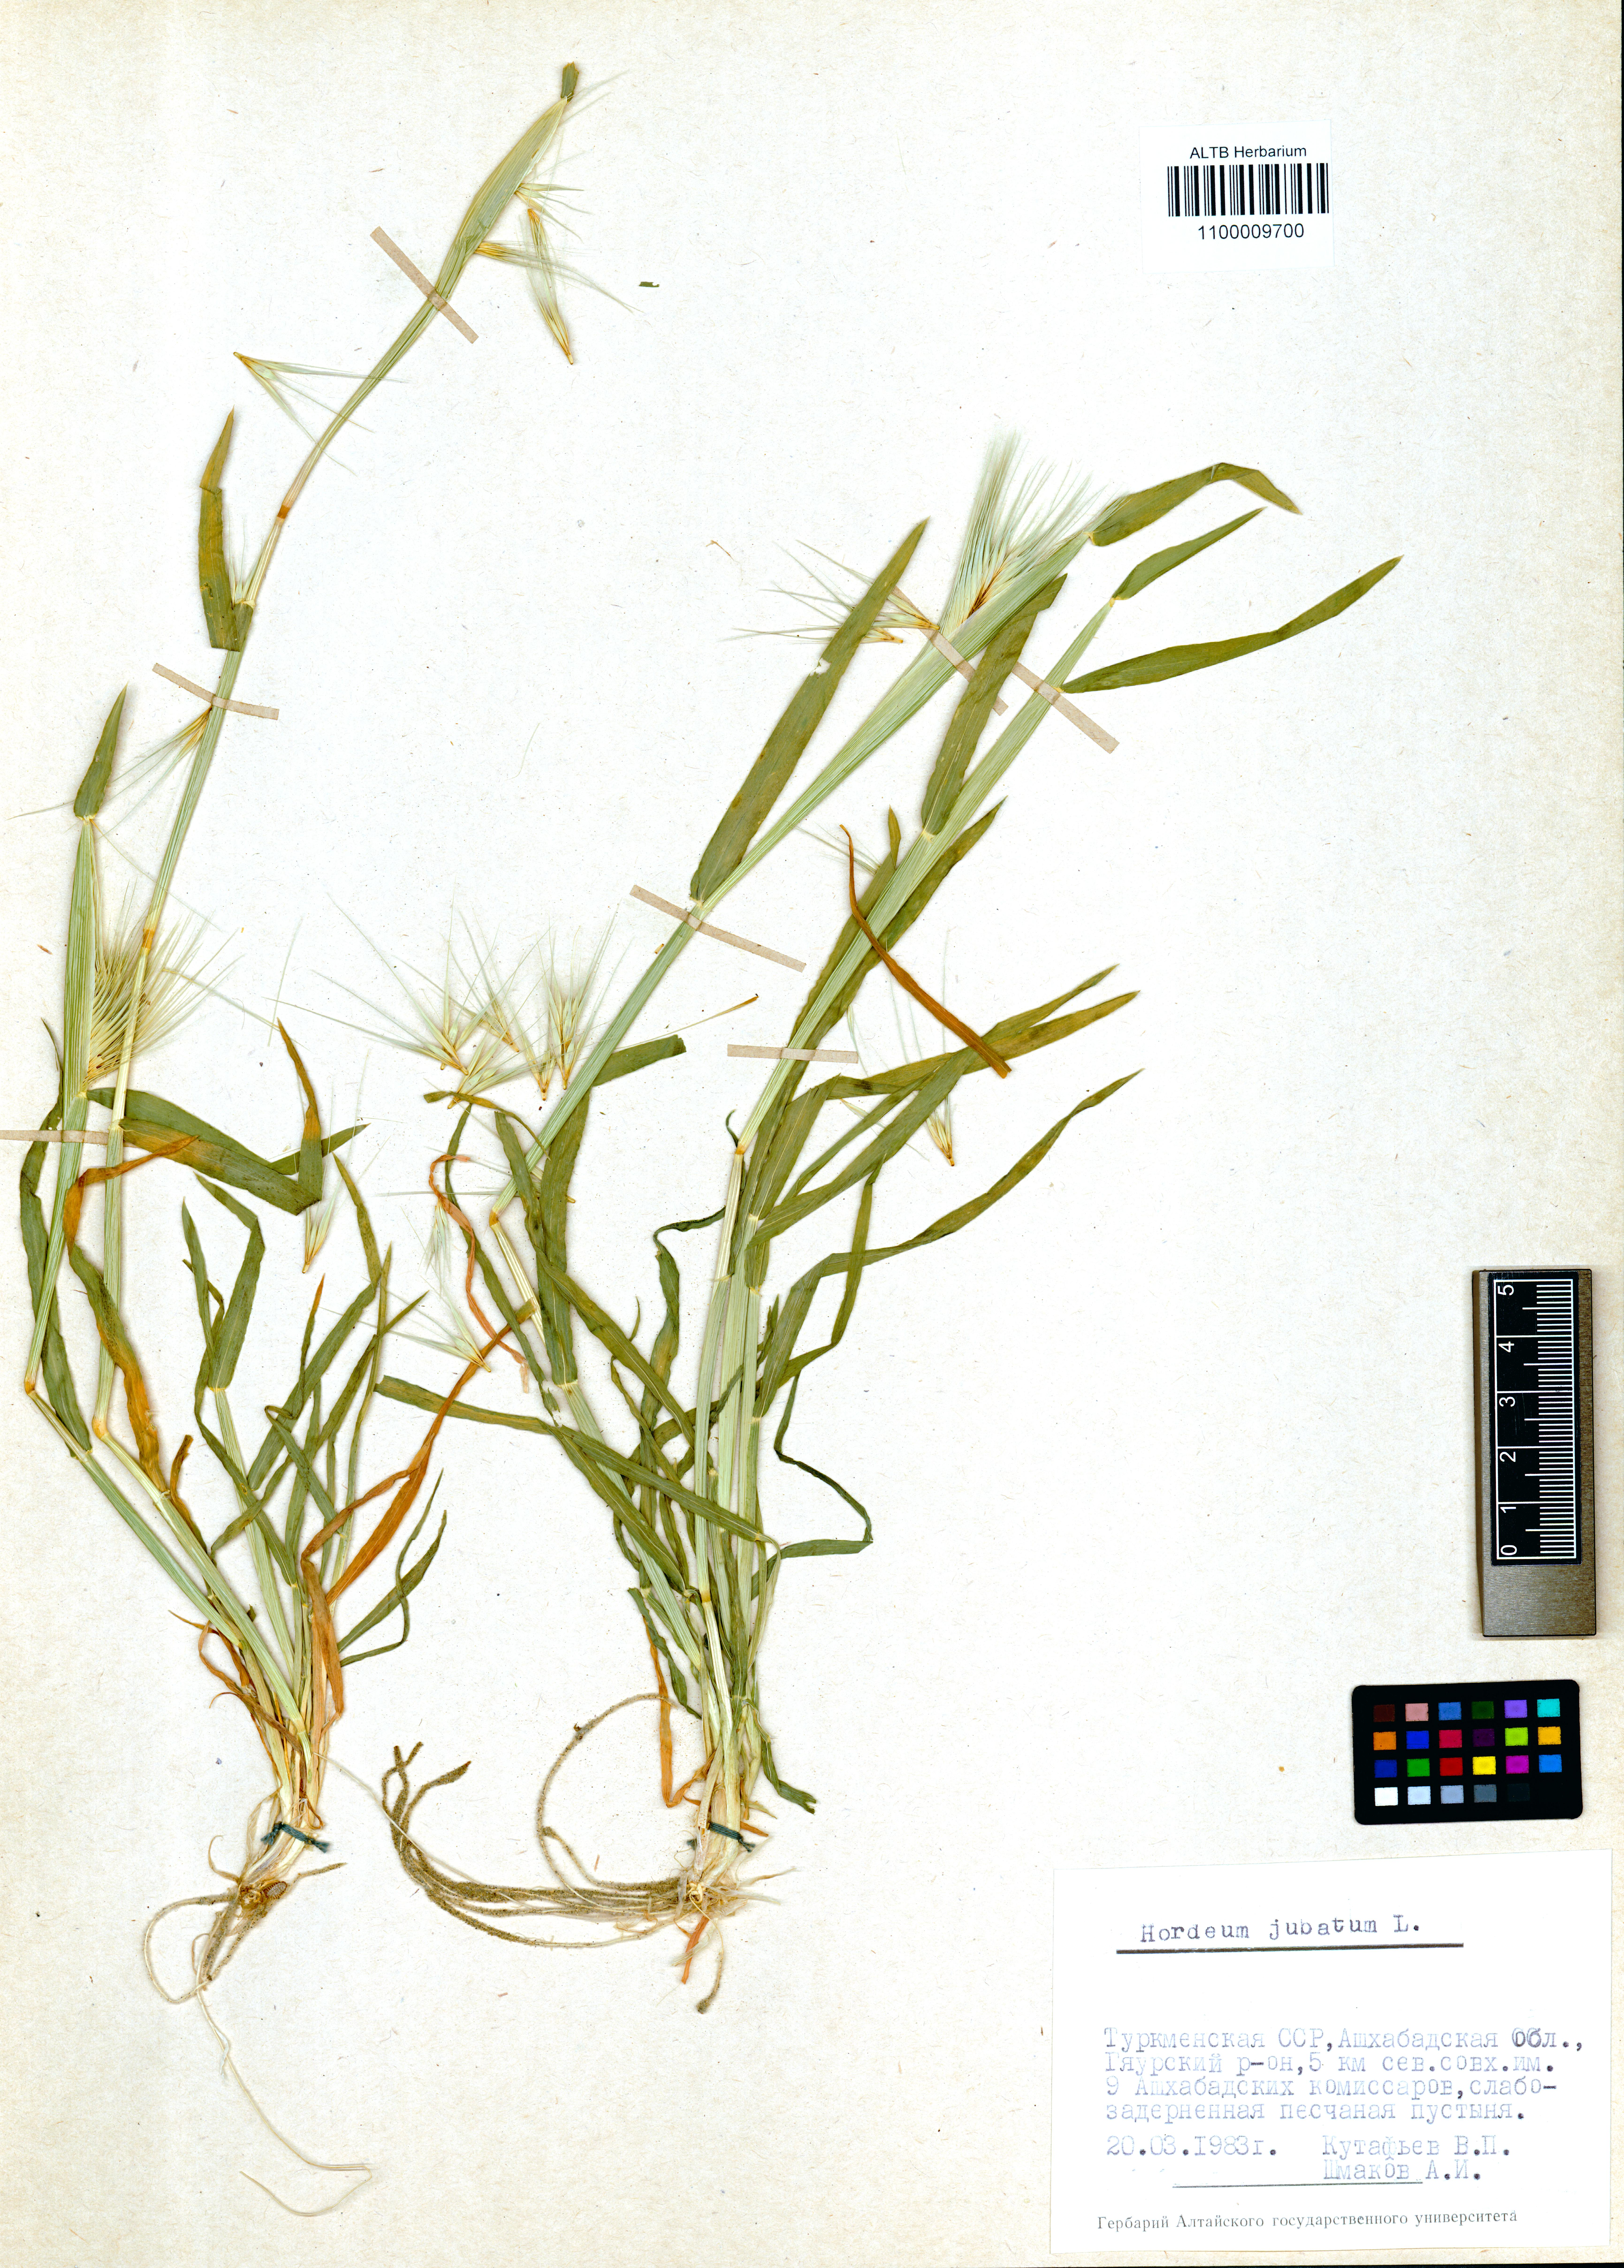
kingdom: Plantae
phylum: Tracheophyta
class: Liliopsida
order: Poales
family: Poaceae
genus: Hordeum
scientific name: Hordeum jubatum
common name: Foxtail barley
